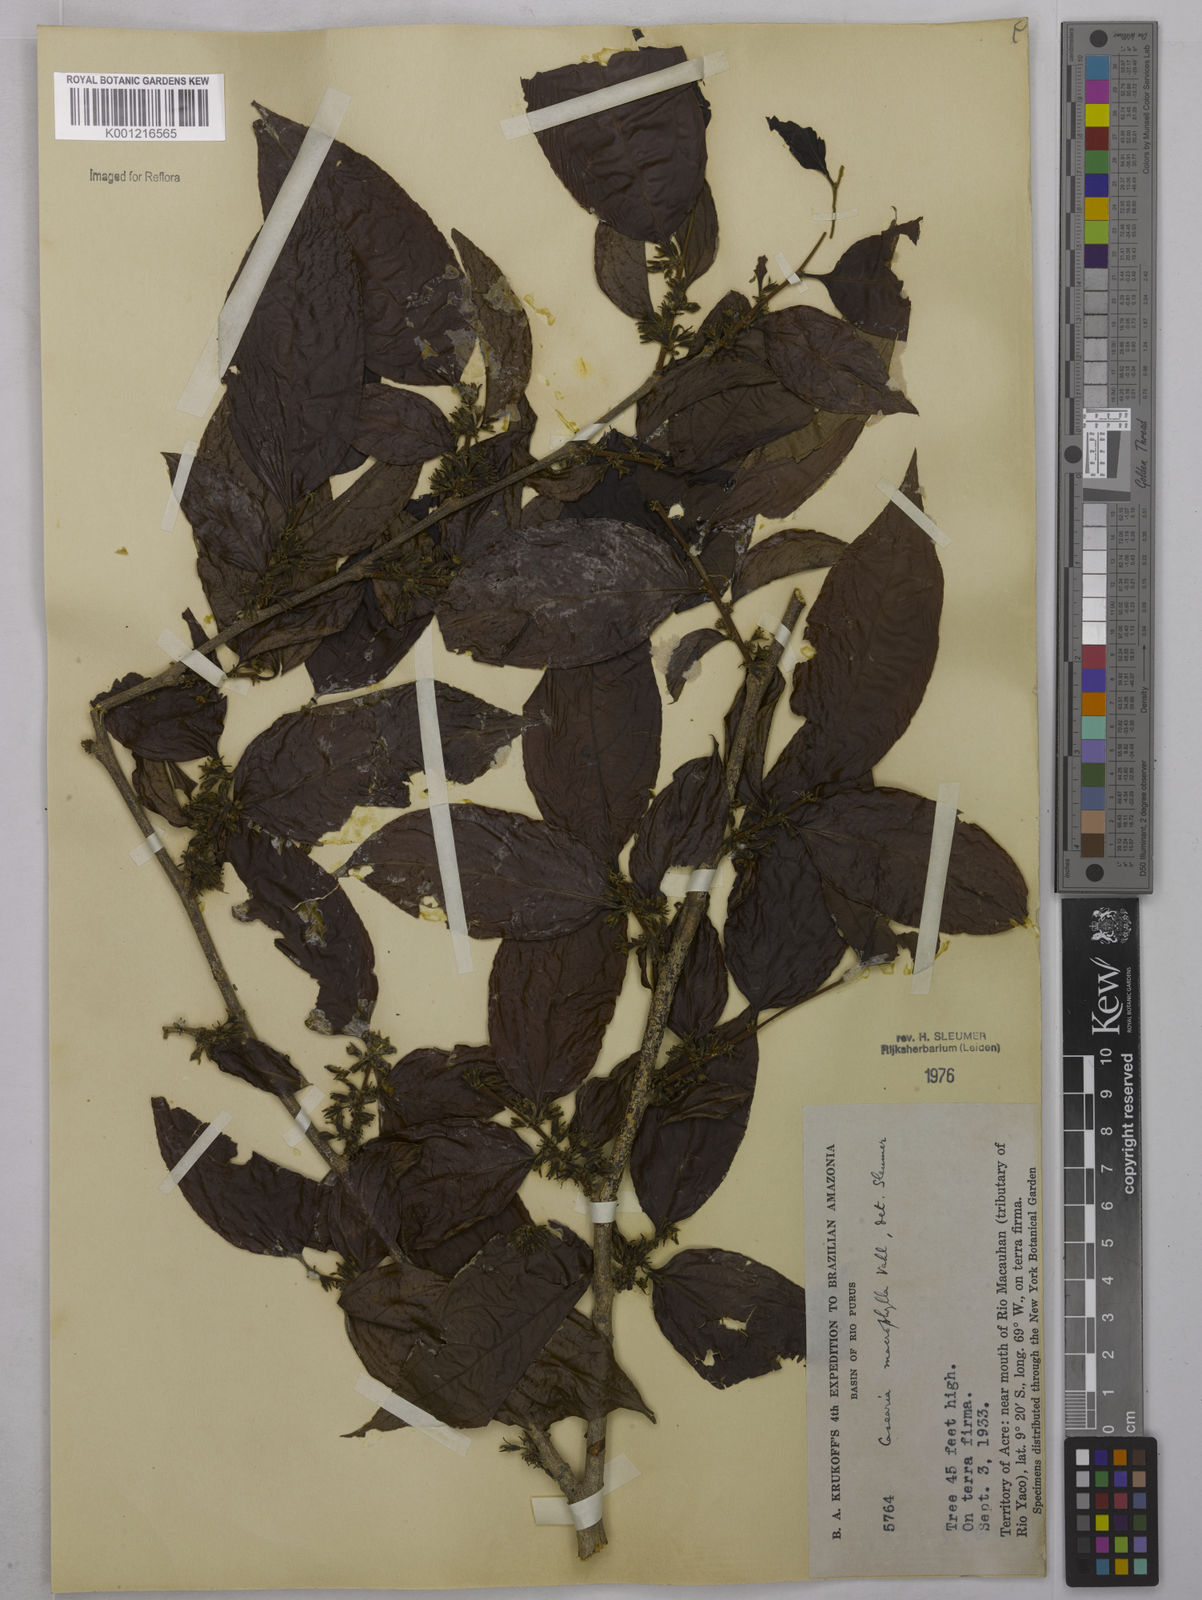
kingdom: Plantae
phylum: Tracheophyta
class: Magnoliopsida
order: Malpighiales
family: Salicaceae
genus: Casearia
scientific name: Casearia pitumba
